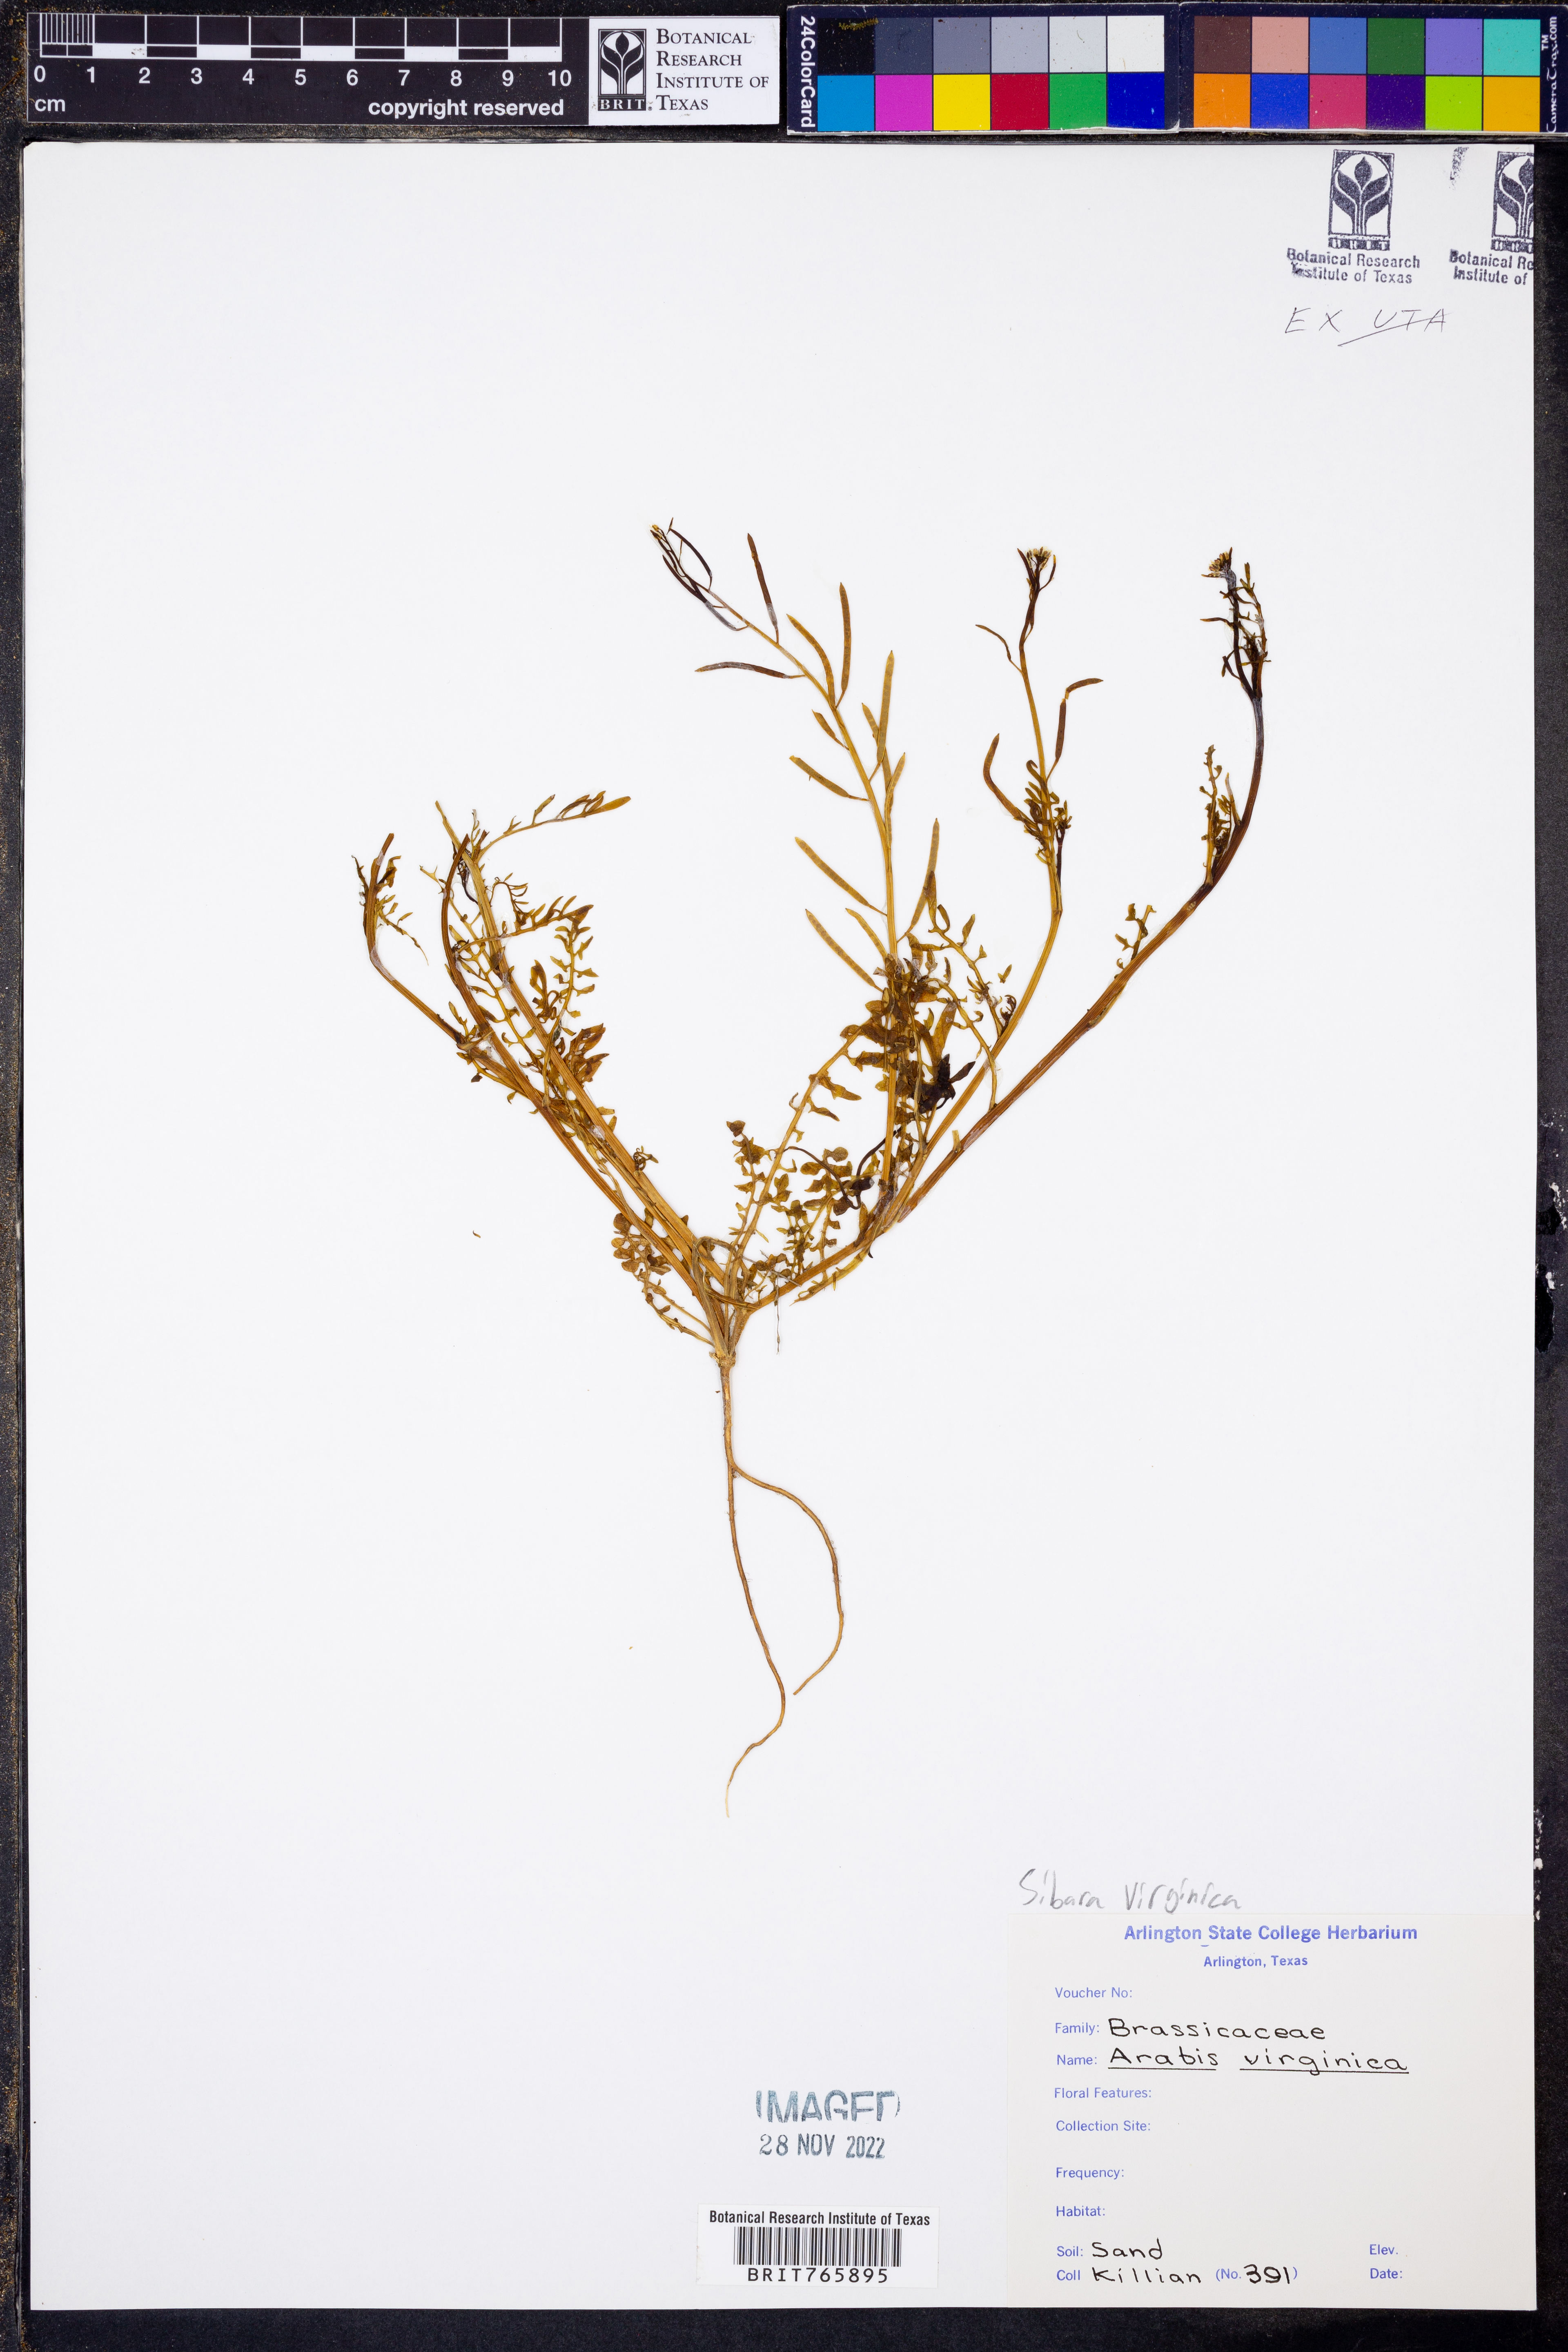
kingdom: Plantae
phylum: Tracheophyta
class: Magnoliopsida
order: Brassicales
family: Brassicaceae
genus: Planodes
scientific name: Planodes virginicum
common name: Virginia cress
